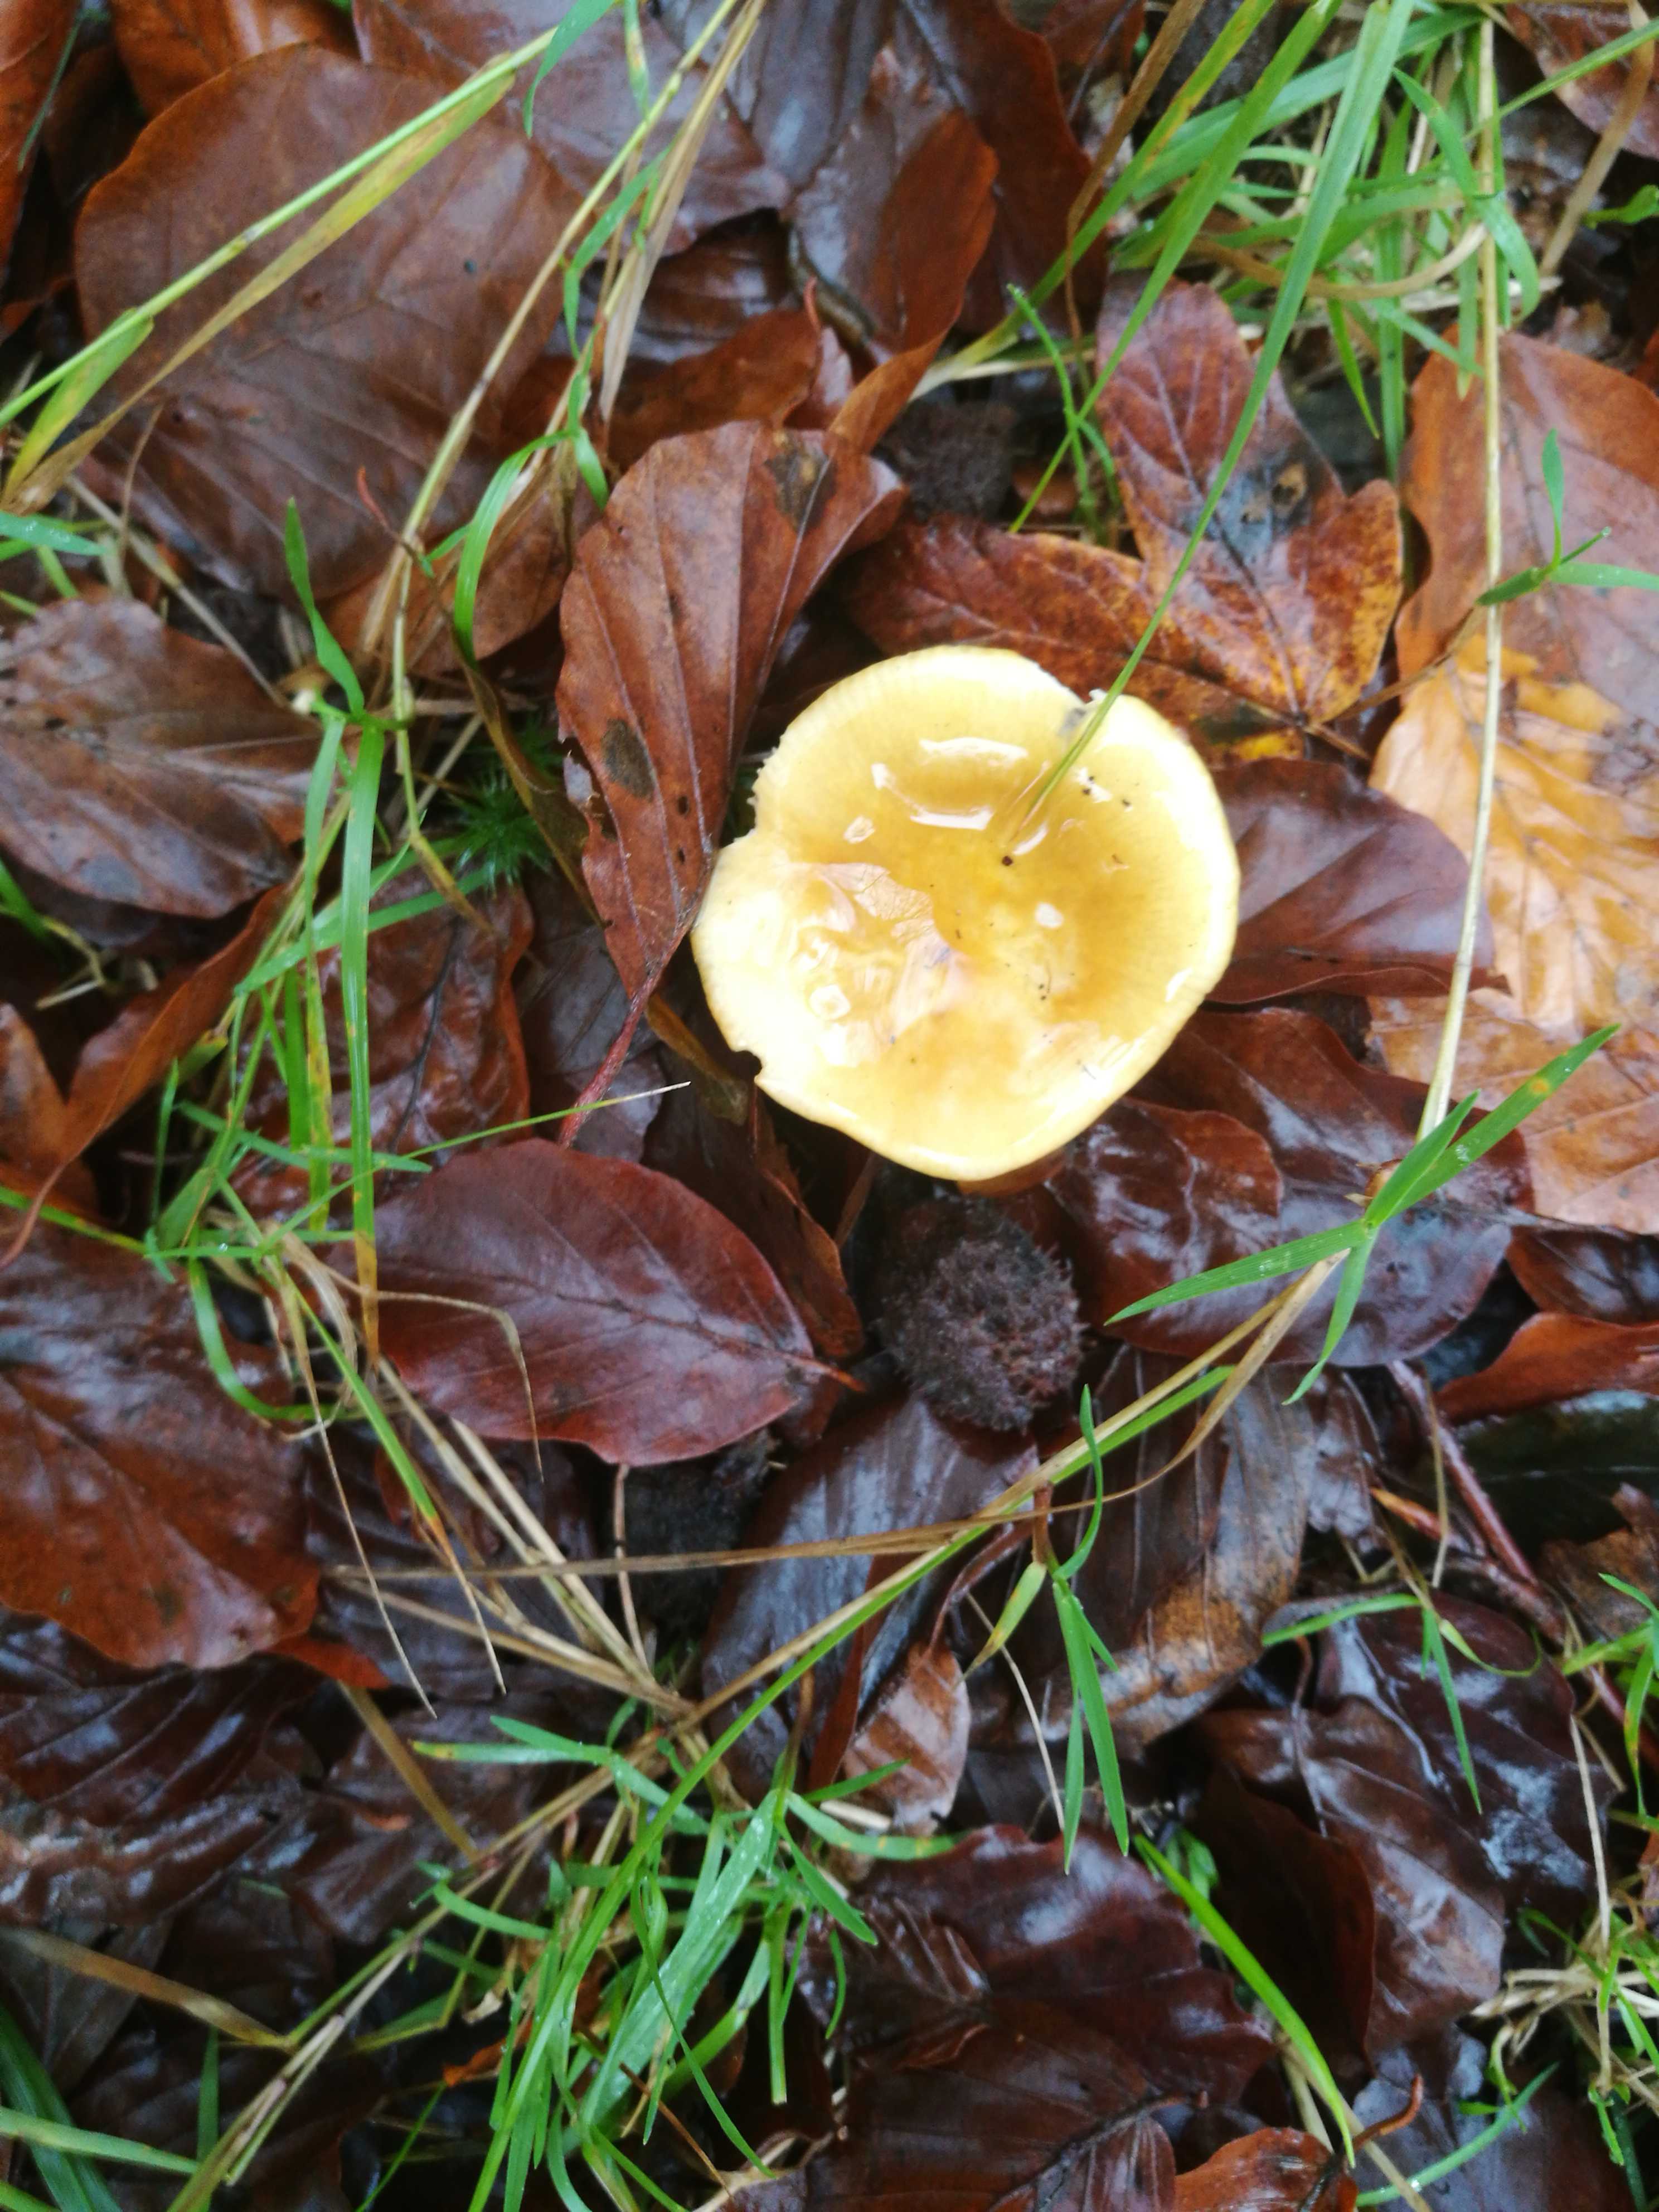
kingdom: Fungi
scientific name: Fungi
